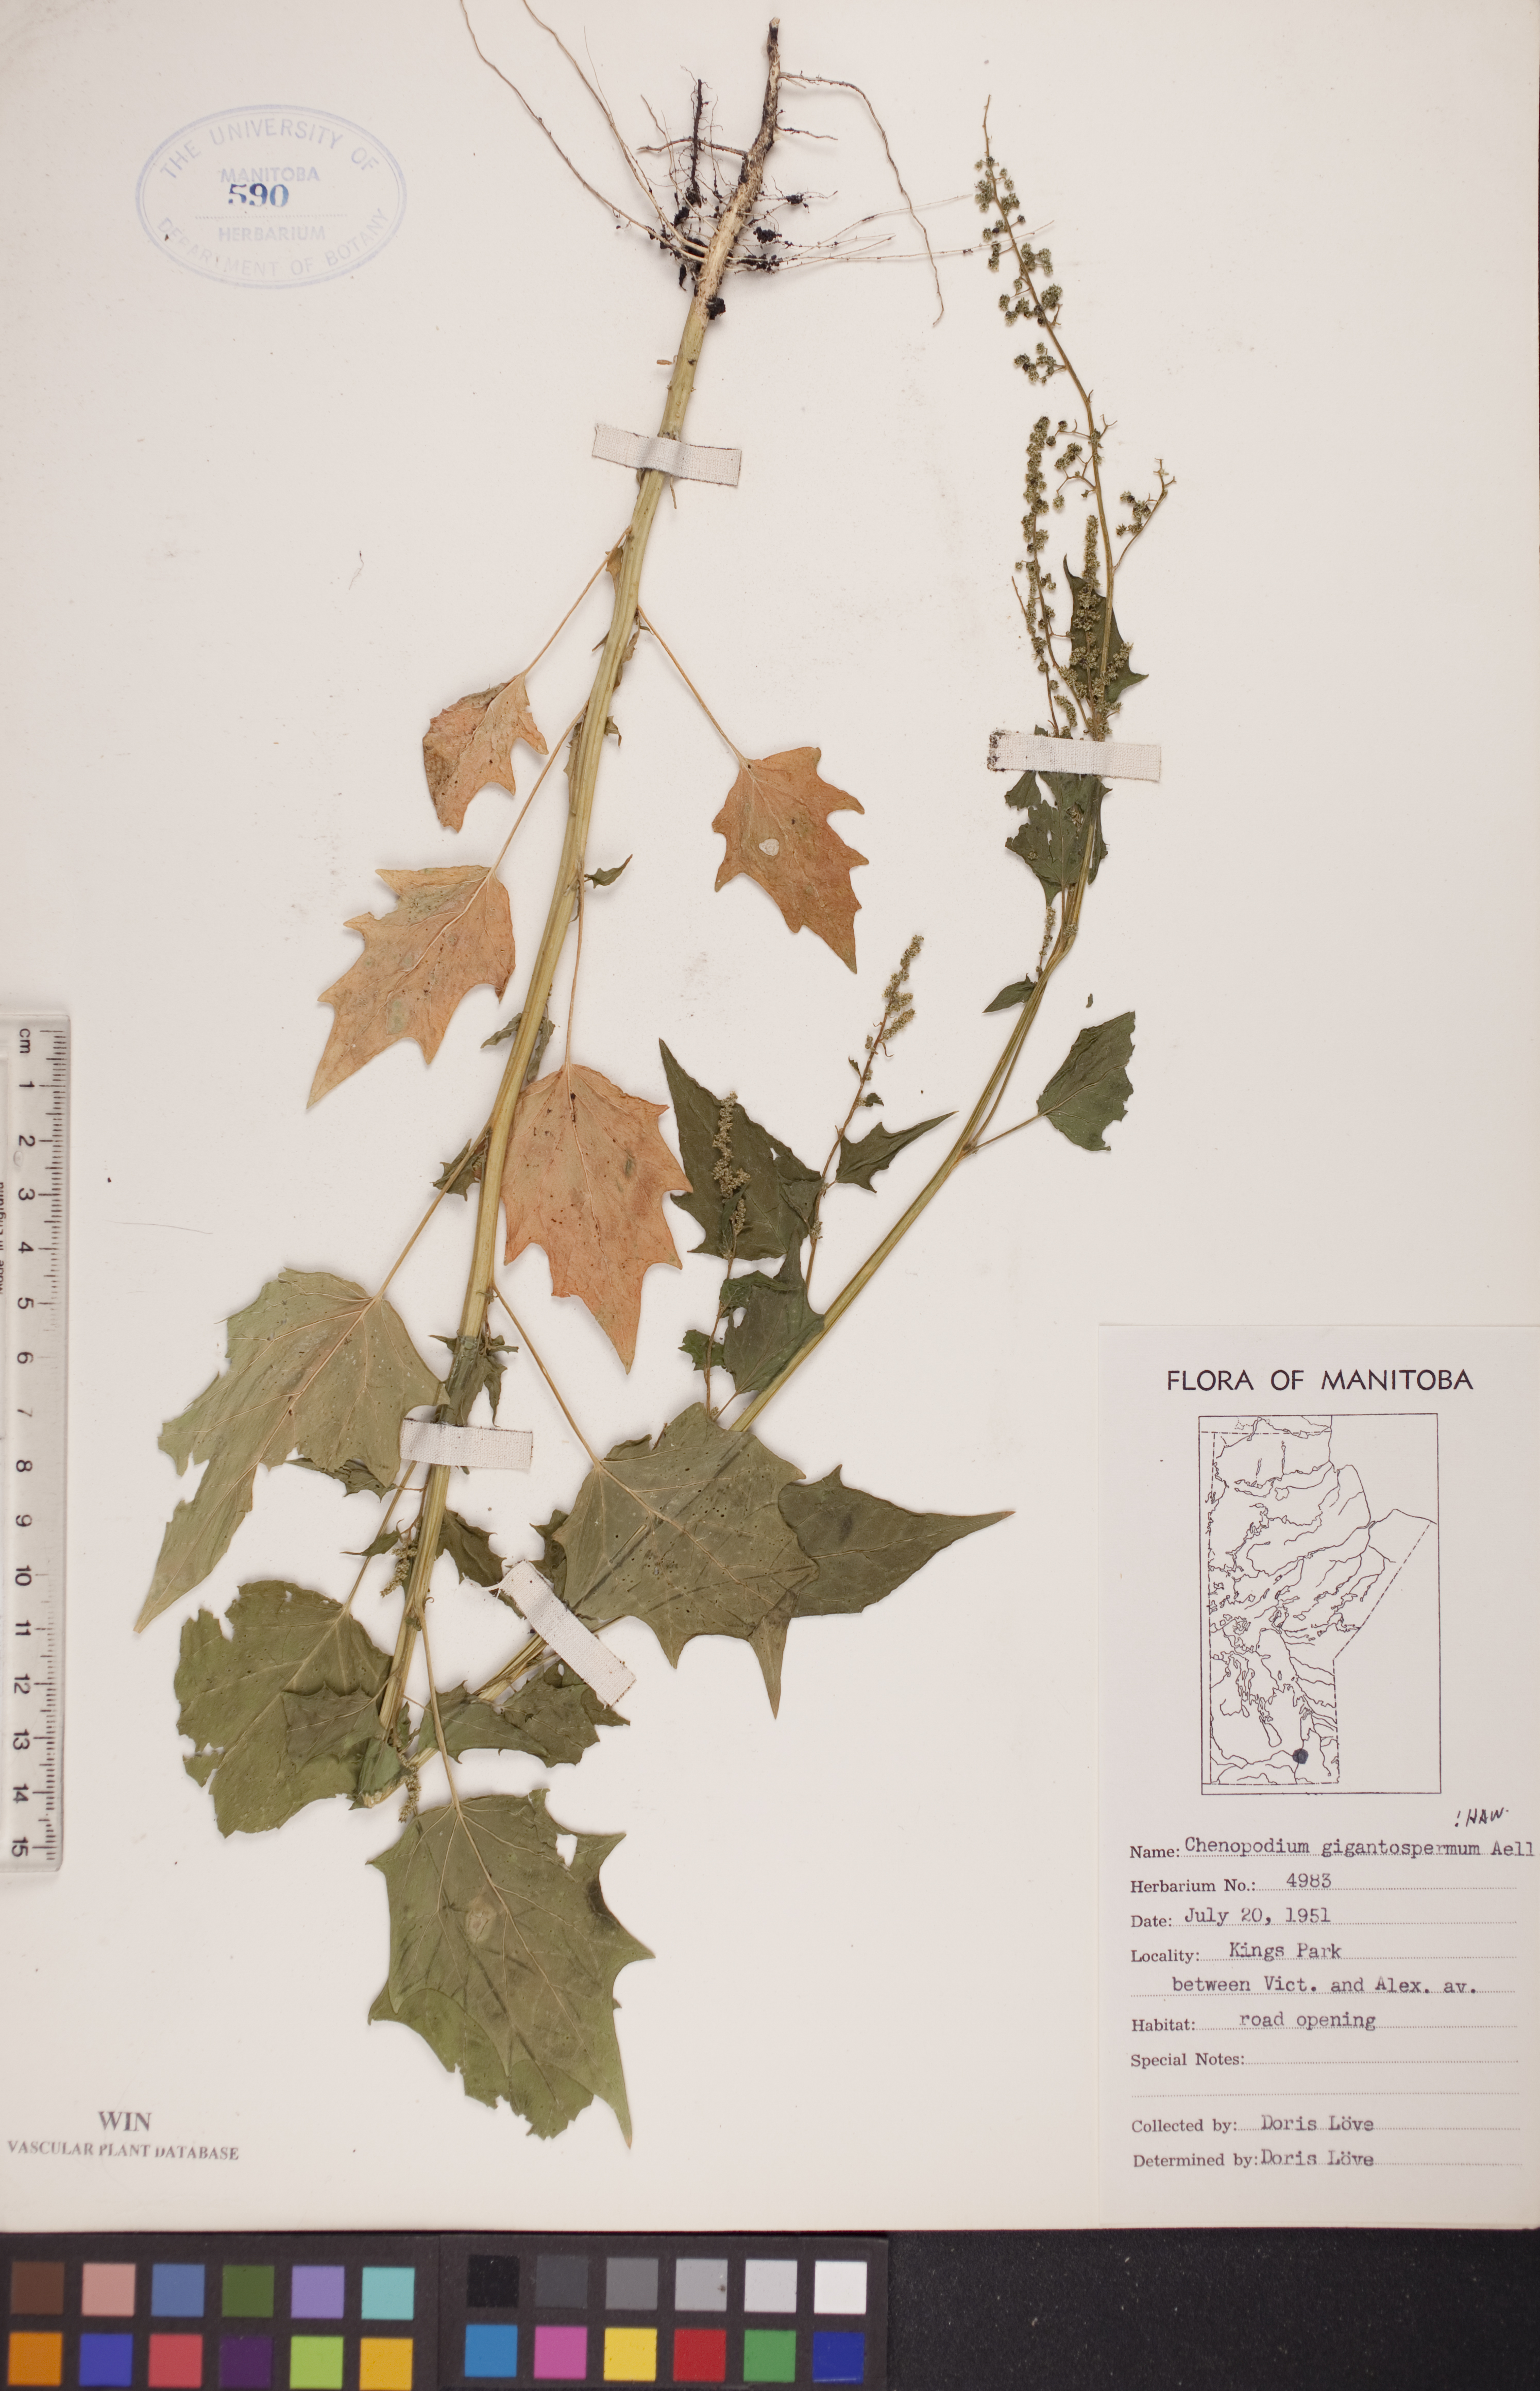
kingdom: Plantae
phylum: Tracheophyta
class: Magnoliopsida
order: Caryophyllales
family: Amaranthaceae
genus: Chenopodiastrum
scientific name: Chenopodiastrum simplex
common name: Large-seed goosefoot
